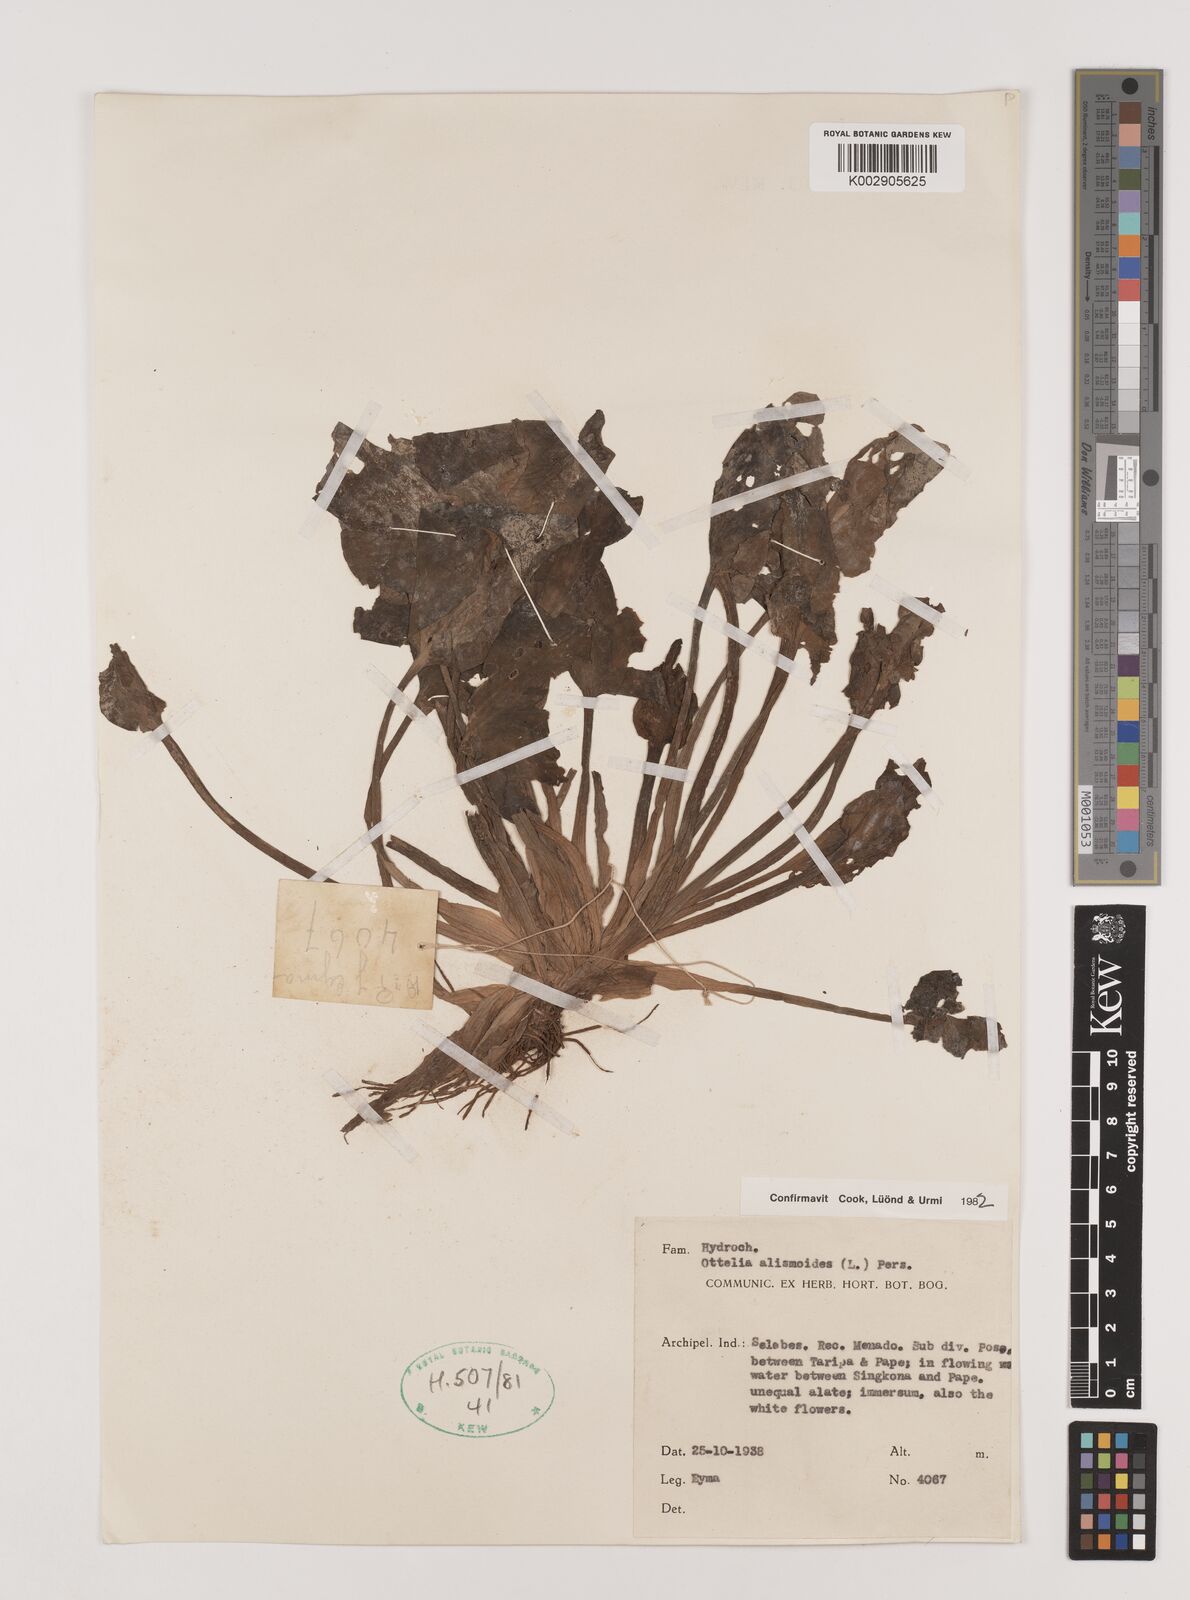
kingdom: Plantae
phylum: Tracheophyta
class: Liliopsida
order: Alismatales
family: Hydrocharitaceae
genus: Ottelia
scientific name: Ottelia alismoides
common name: Duck-lettuce
